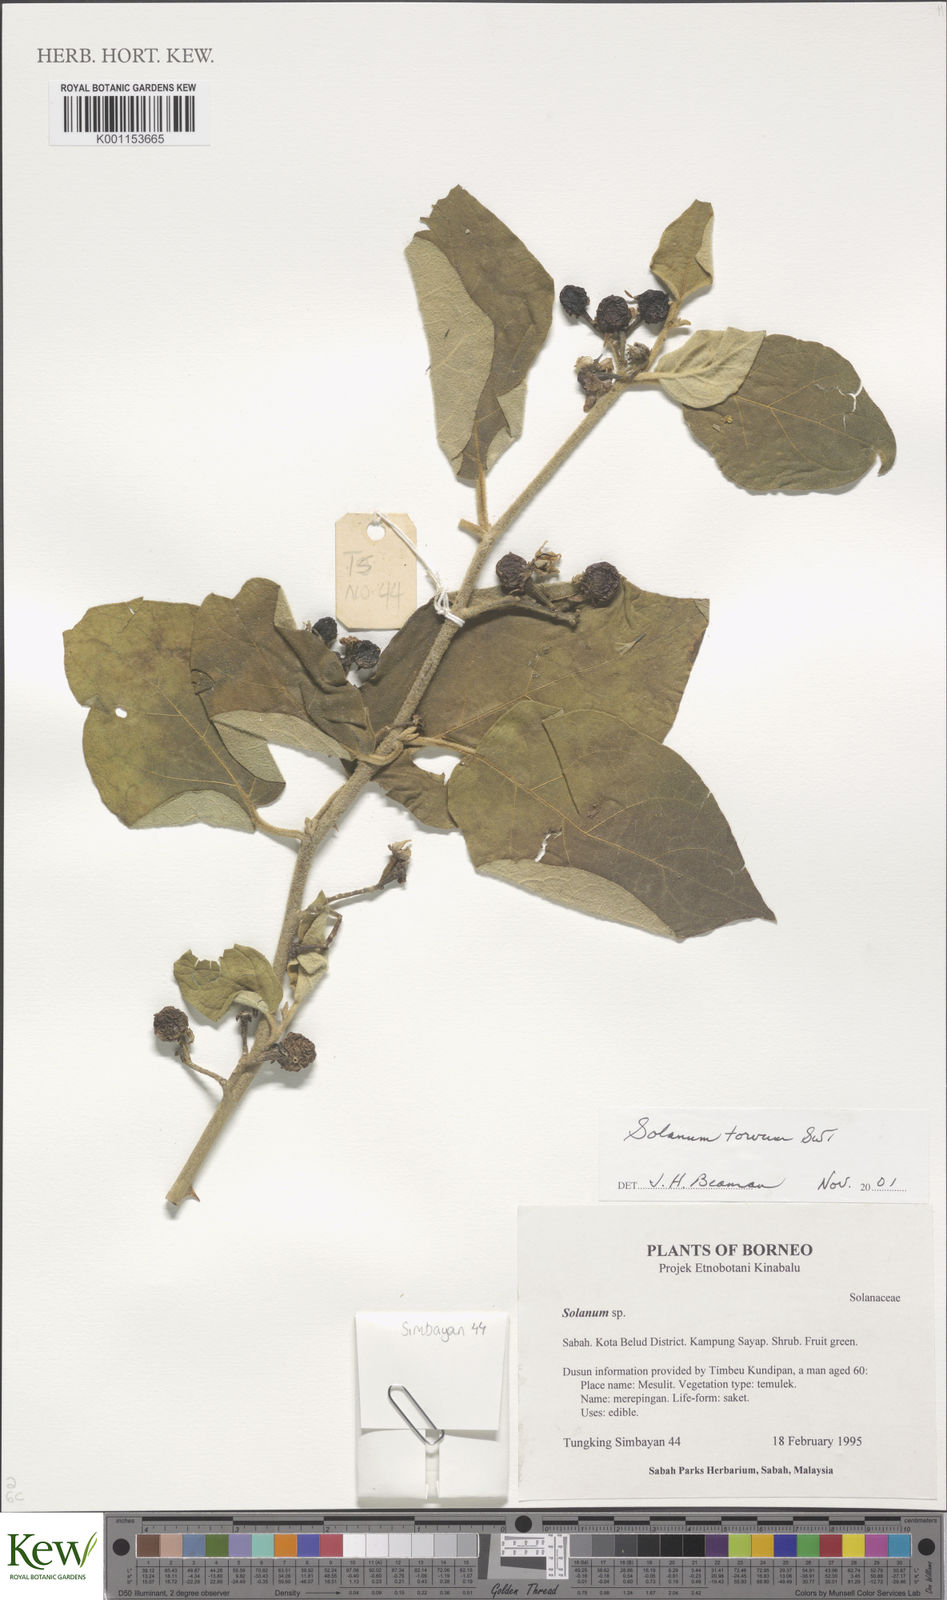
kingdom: Plantae
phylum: Tracheophyta
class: Magnoliopsida
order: Solanales
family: Solanaceae
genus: Solanum
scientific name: Solanum torvum
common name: Turkey berry
